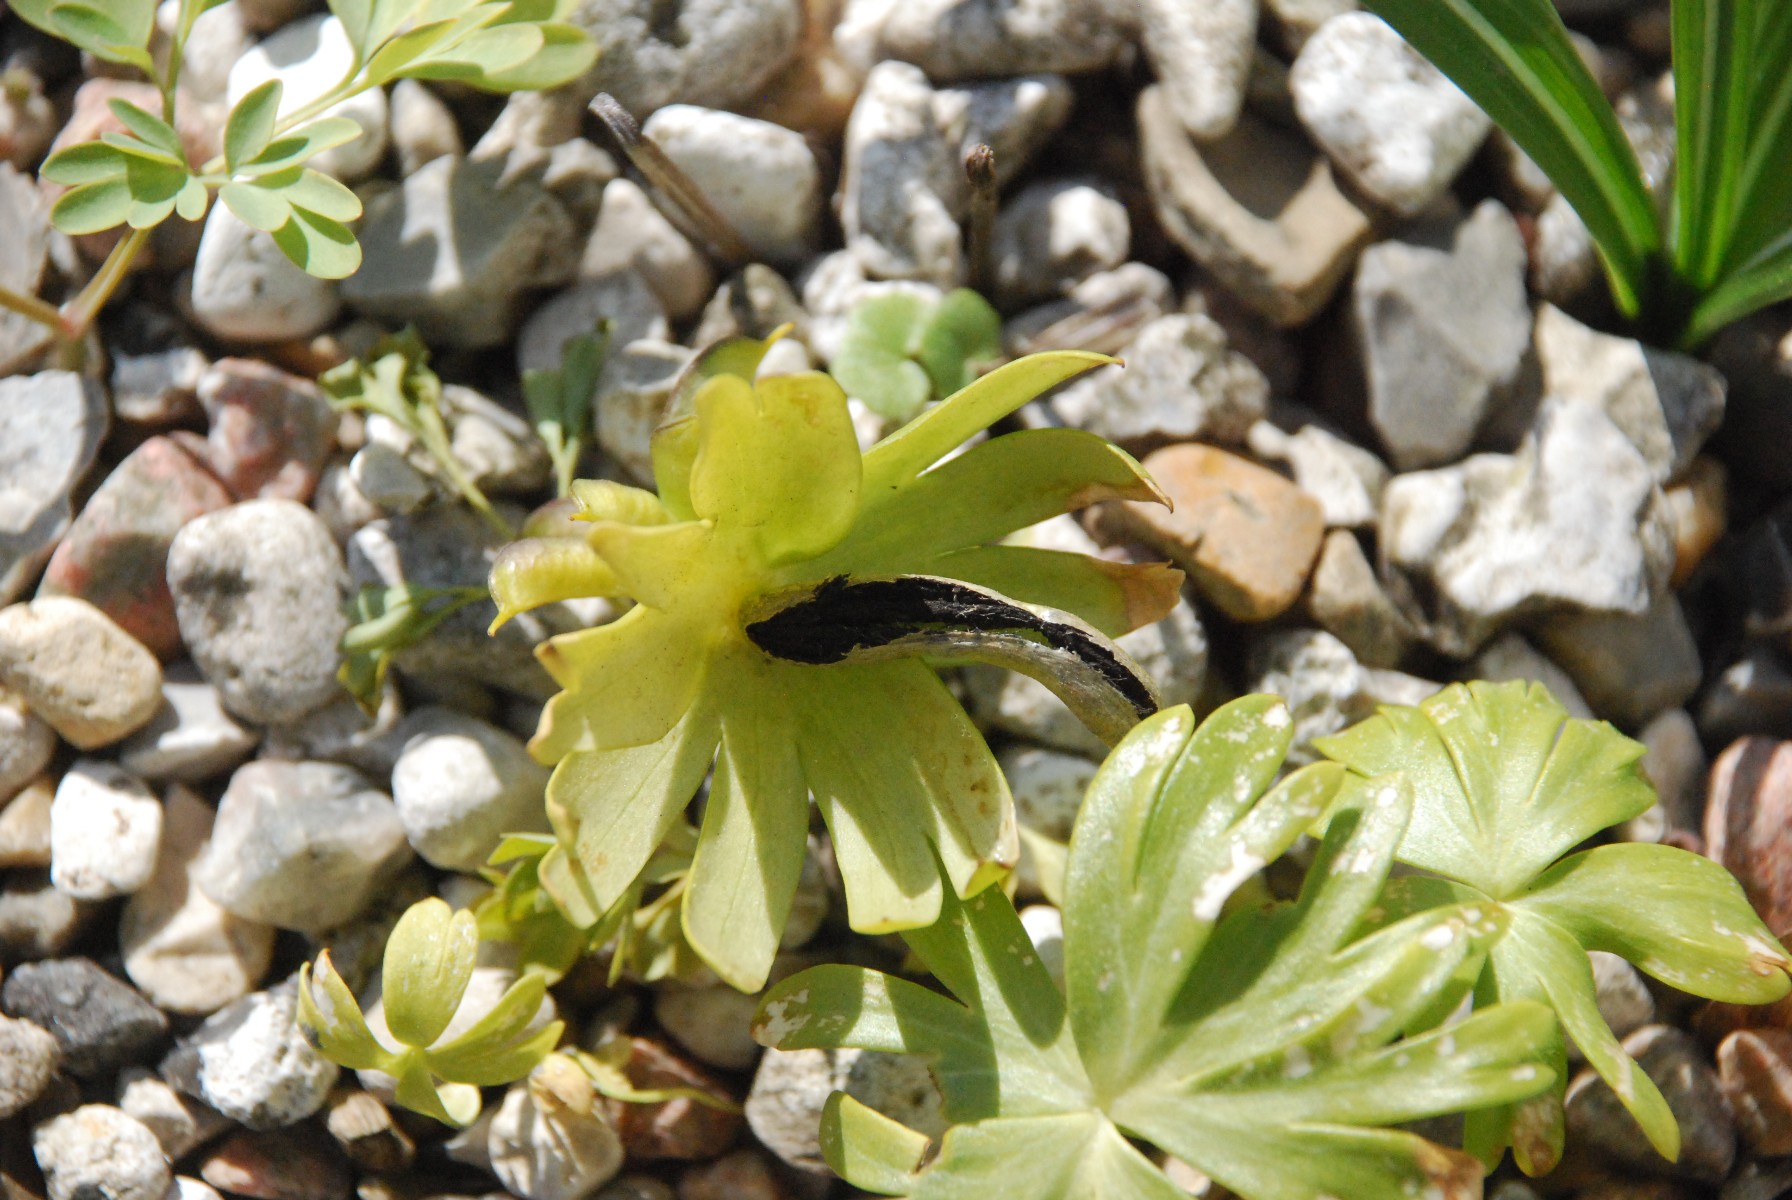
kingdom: Fungi
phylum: Basidiomycota
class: Ustilaginomycetes
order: Urocystidales
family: Urocystidaceae
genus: Urocystis
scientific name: Urocystis eranthidis
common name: erantis-brand
